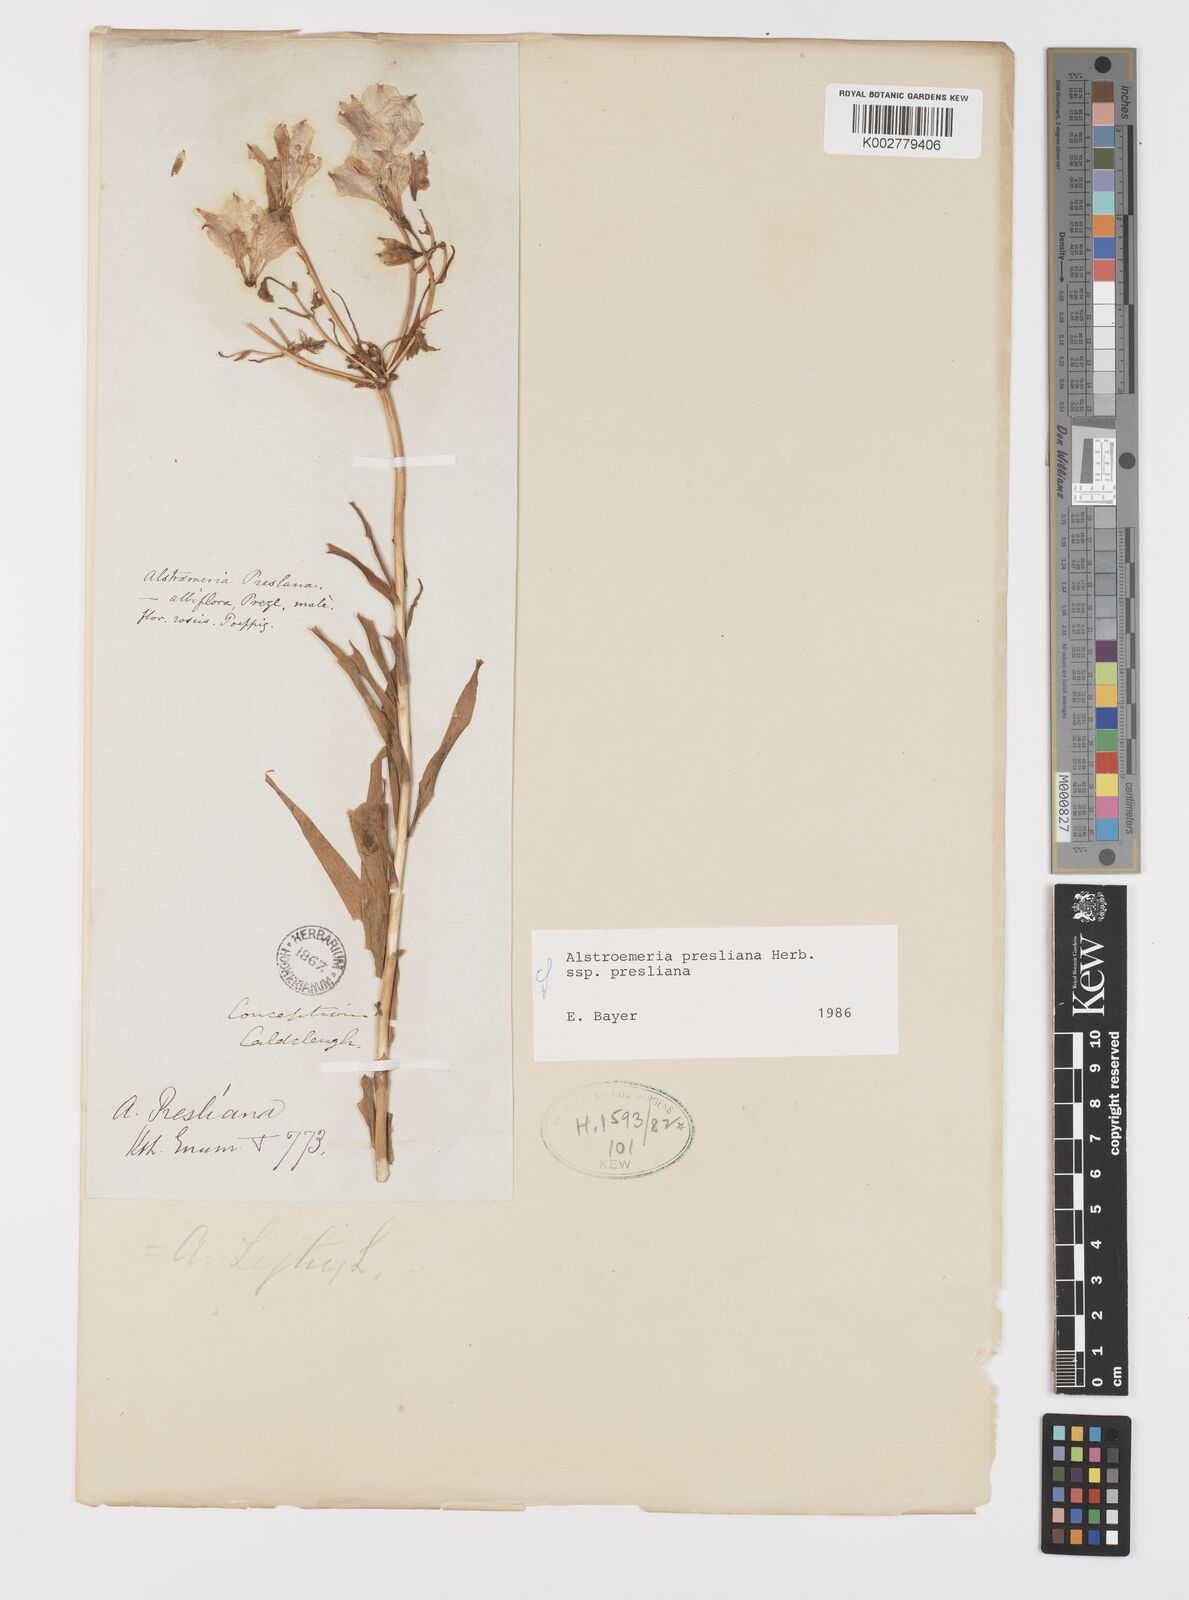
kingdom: Plantae
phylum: Tracheophyta
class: Liliopsida
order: Liliales
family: Alstroemeriaceae
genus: Alstroemeria
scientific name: Alstroemeria presliana
